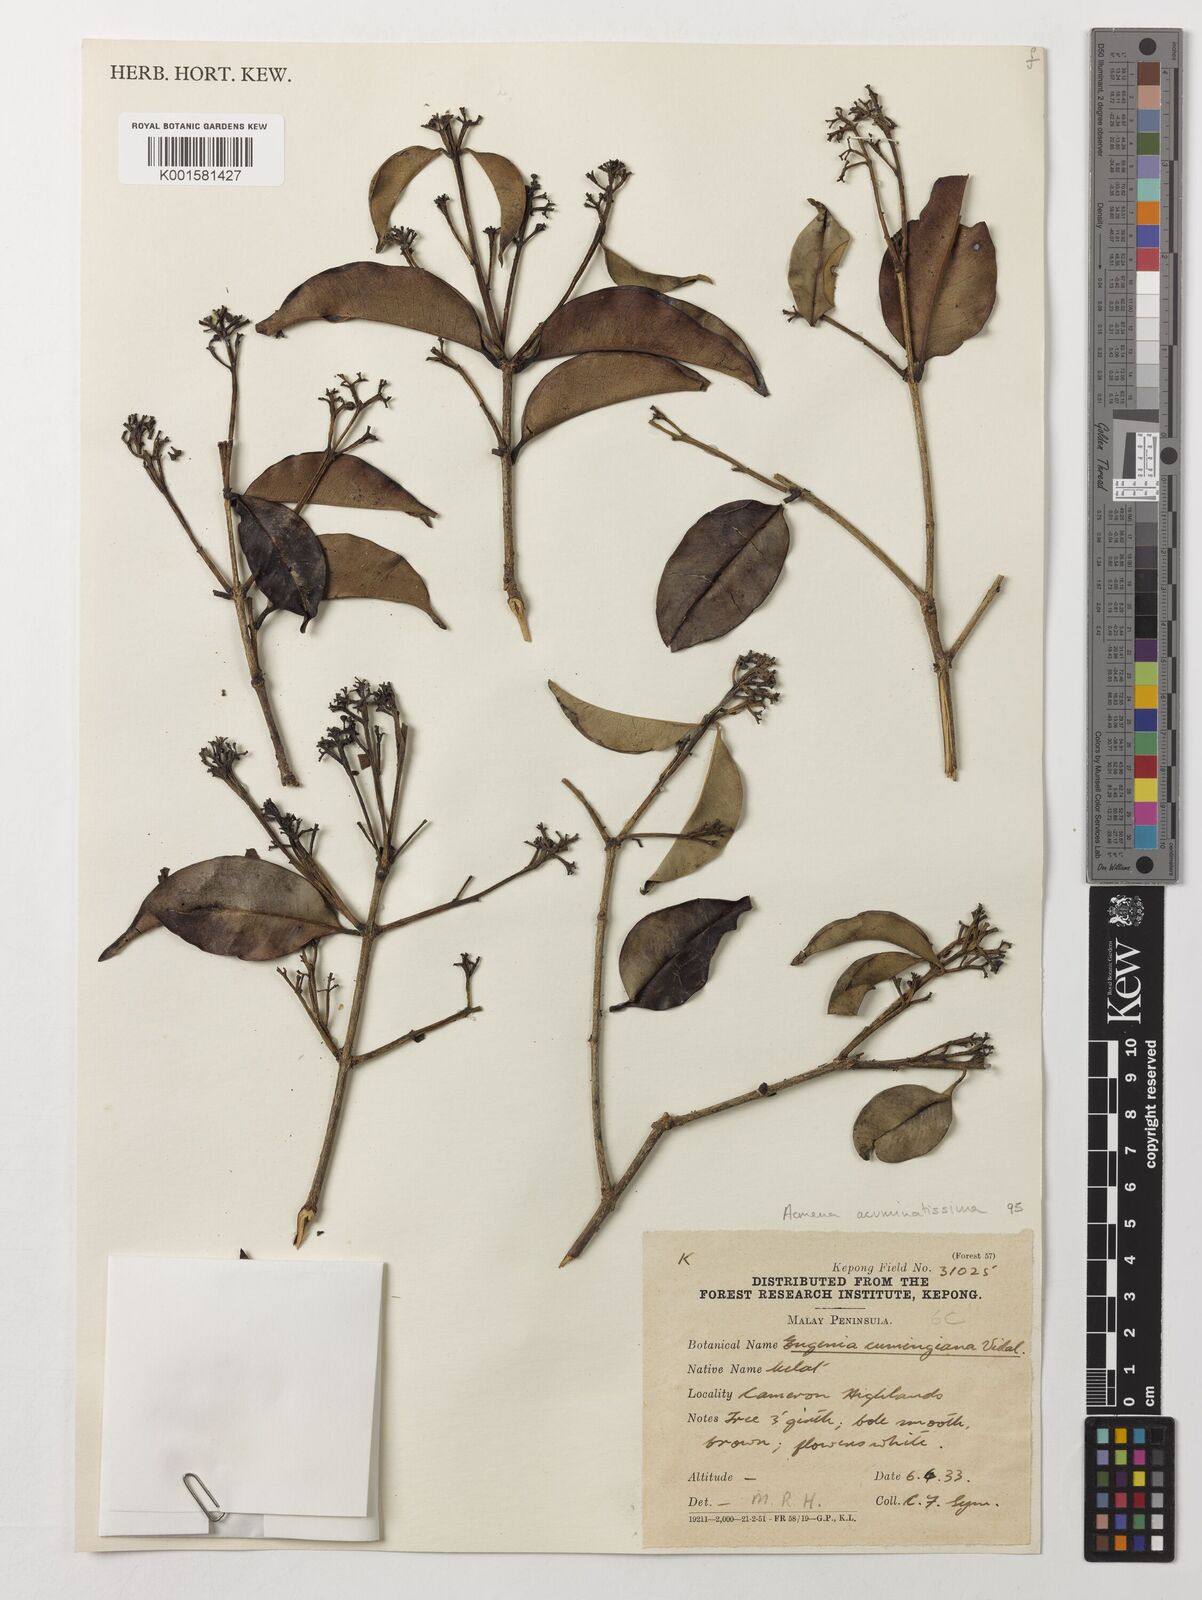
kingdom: Plantae
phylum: Tracheophyta
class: Magnoliopsida
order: Myrtales
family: Myrtaceae
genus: Syzygium
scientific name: Syzygium acuminatissimum
